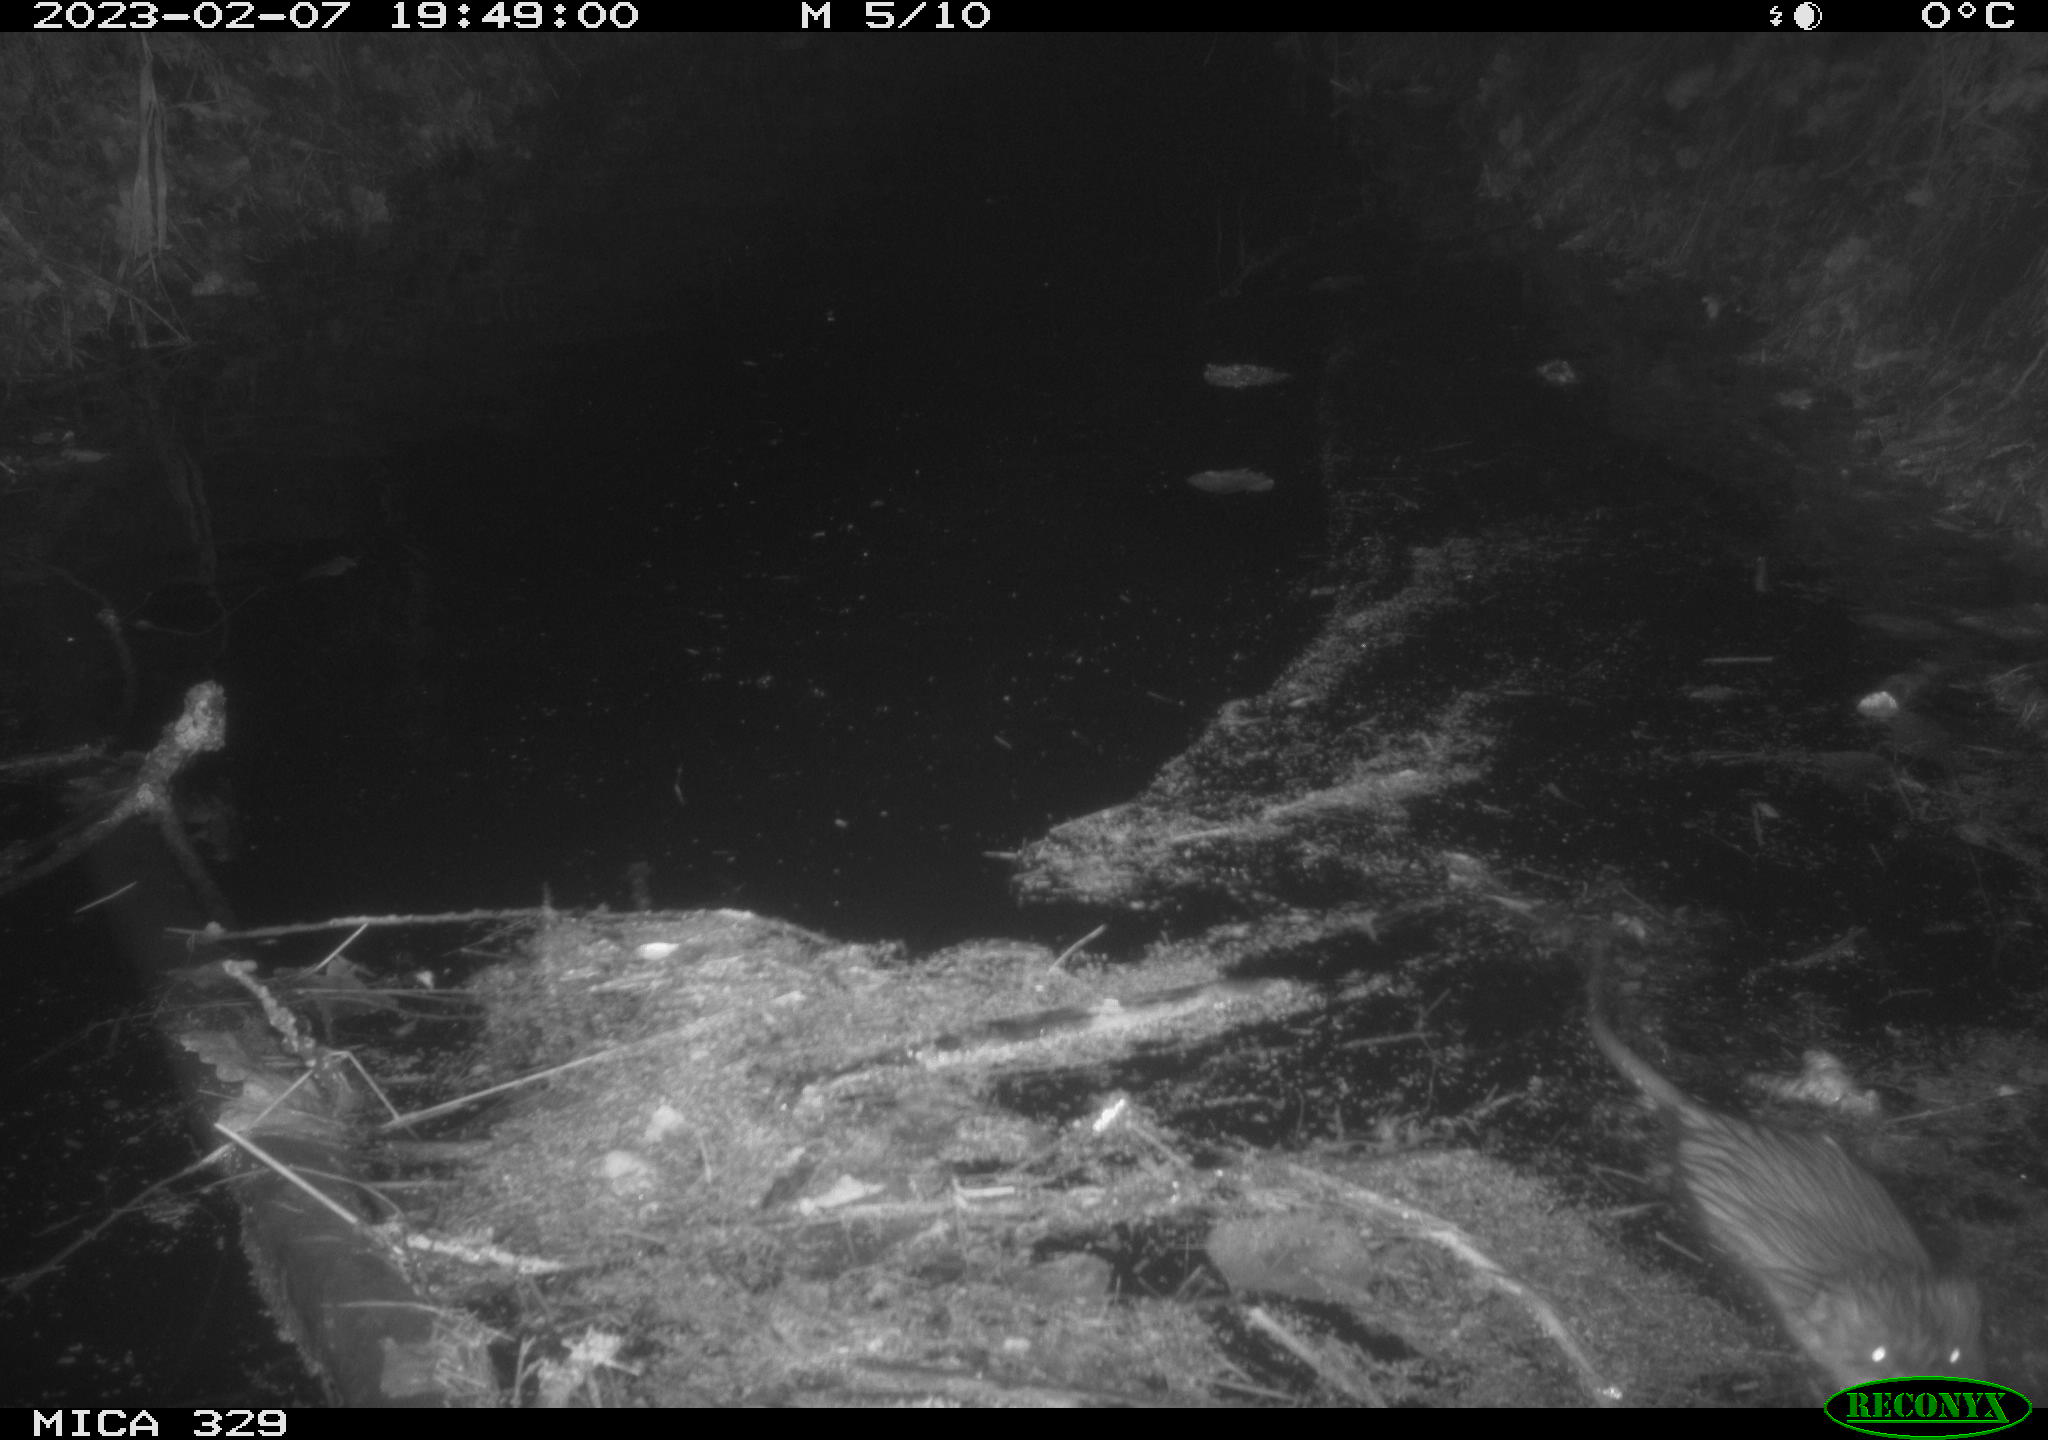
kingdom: Animalia
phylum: Chordata
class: Mammalia
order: Rodentia
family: Cricetidae
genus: Ondatra
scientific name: Ondatra zibethicus
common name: Muskrat
